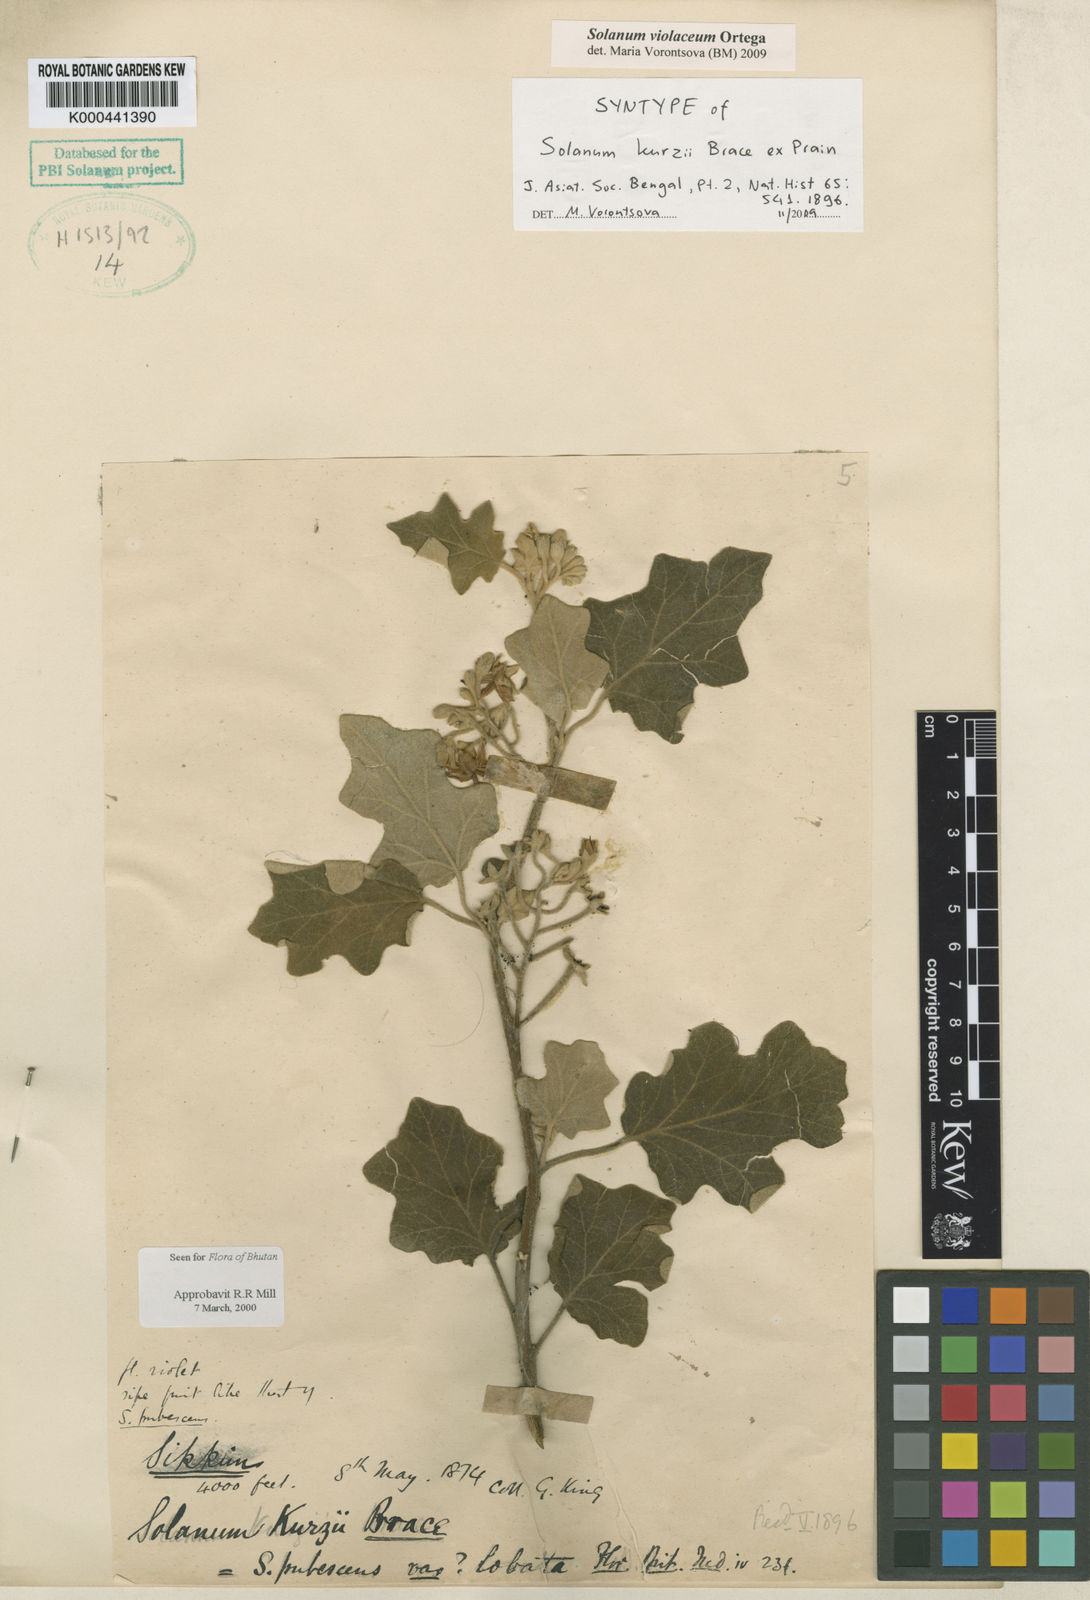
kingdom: Plantae
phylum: Tracheophyta
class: Magnoliopsida
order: Solanales
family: Solanaceae
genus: Solanum
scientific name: Solanum violaceum
